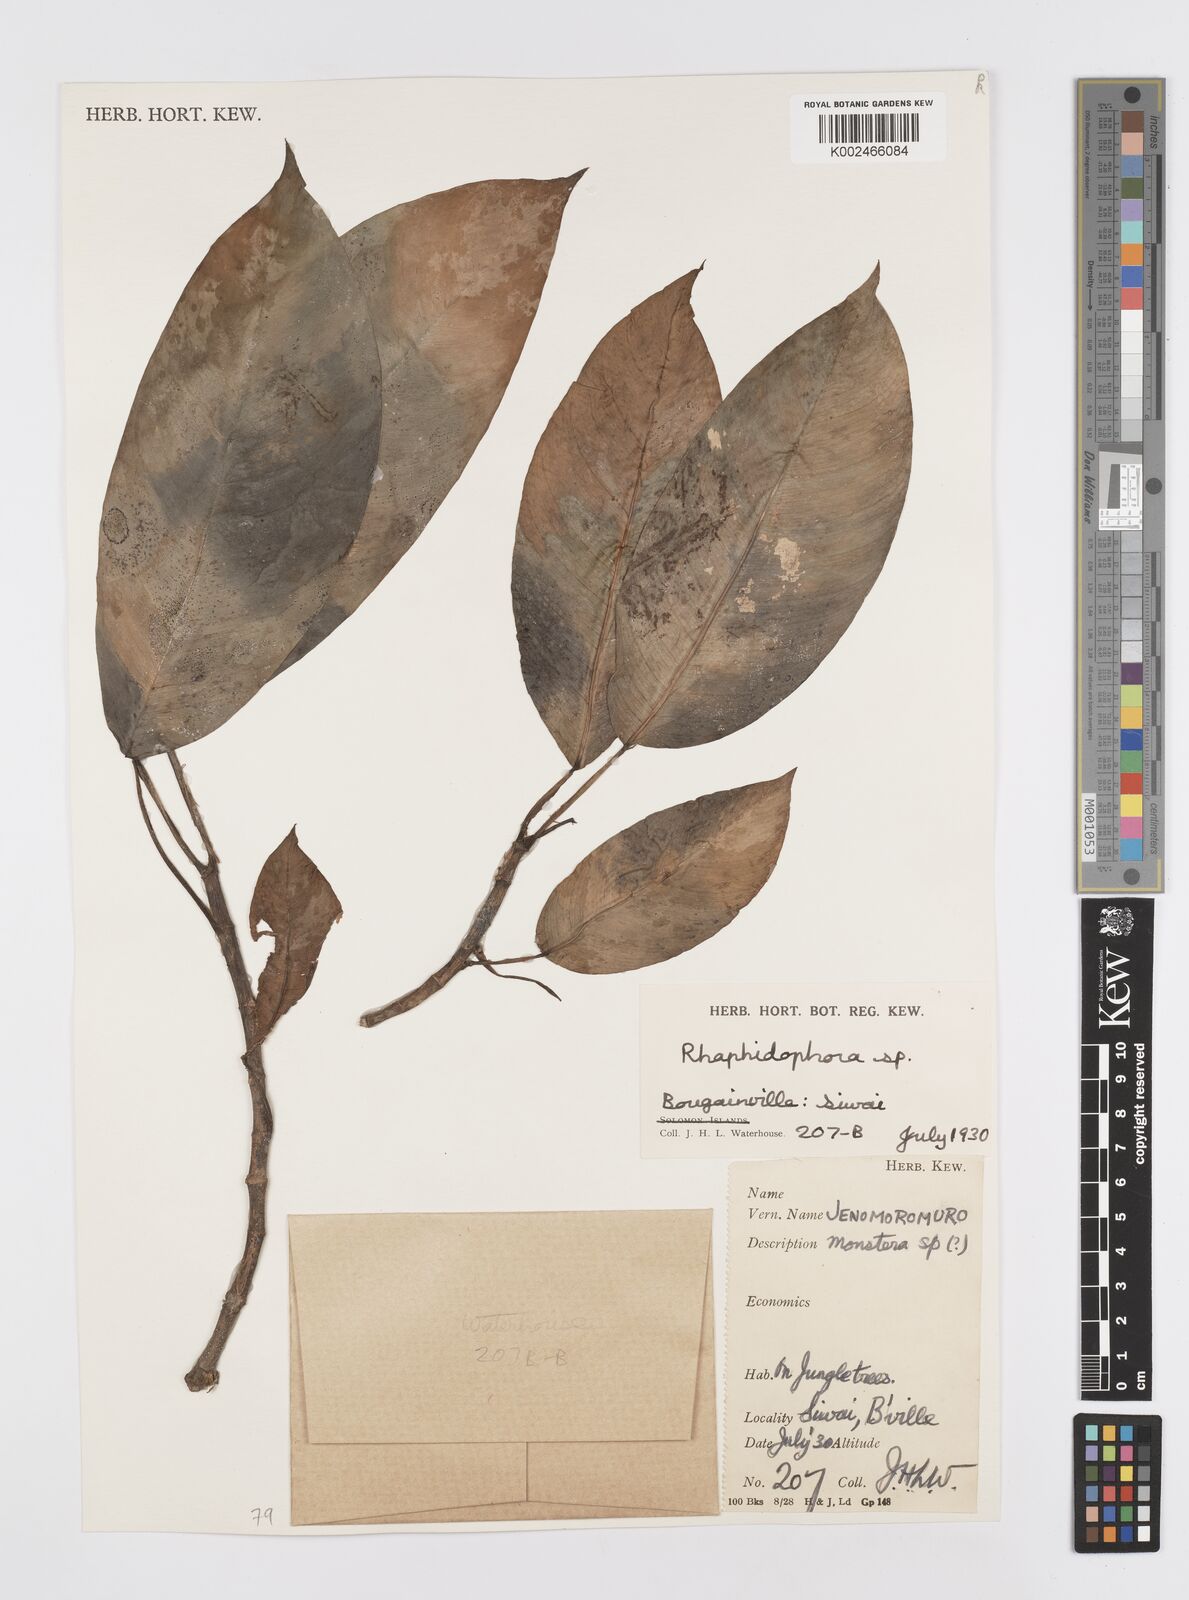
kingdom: Plantae
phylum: Tracheophyta
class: Liliopsida
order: Alismatales
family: Araceae
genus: Rhaphidophora
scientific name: Rhaphidophora mima
